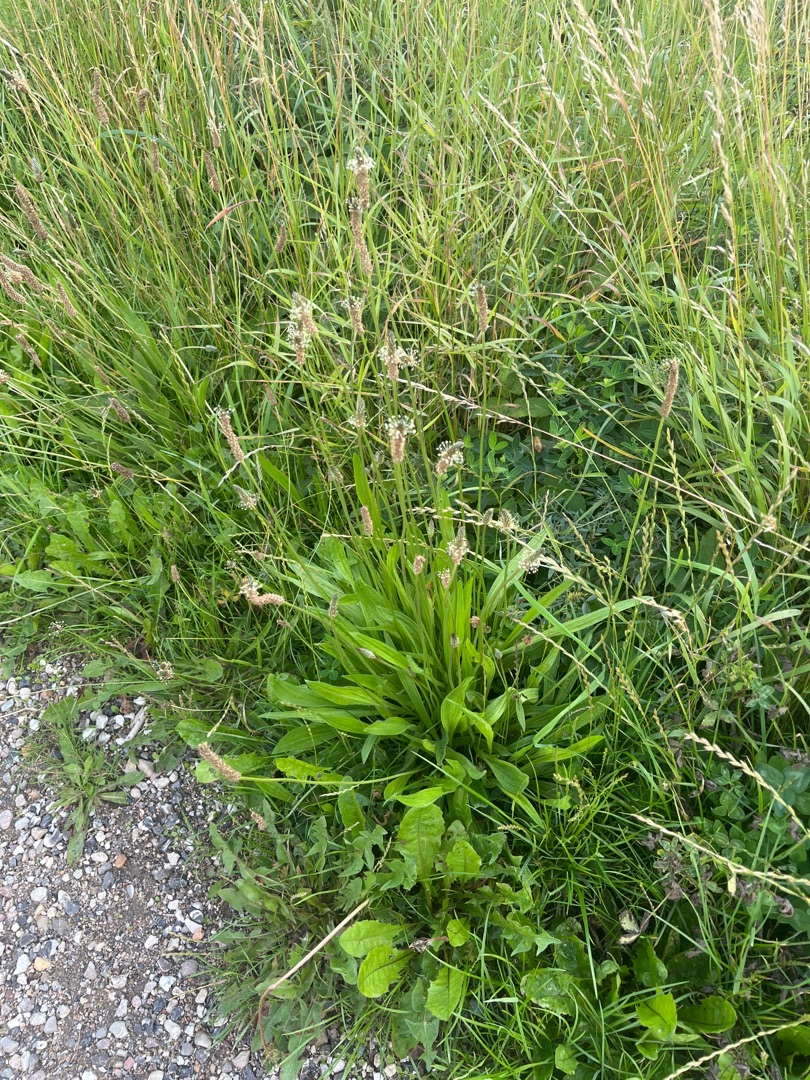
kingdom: Plantae
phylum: Tracheophyta
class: Magnoliopsida
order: Lamiales
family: Plantaginaceae
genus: Plantago
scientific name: Plantago lanceolata
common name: Lancet-vejbred
